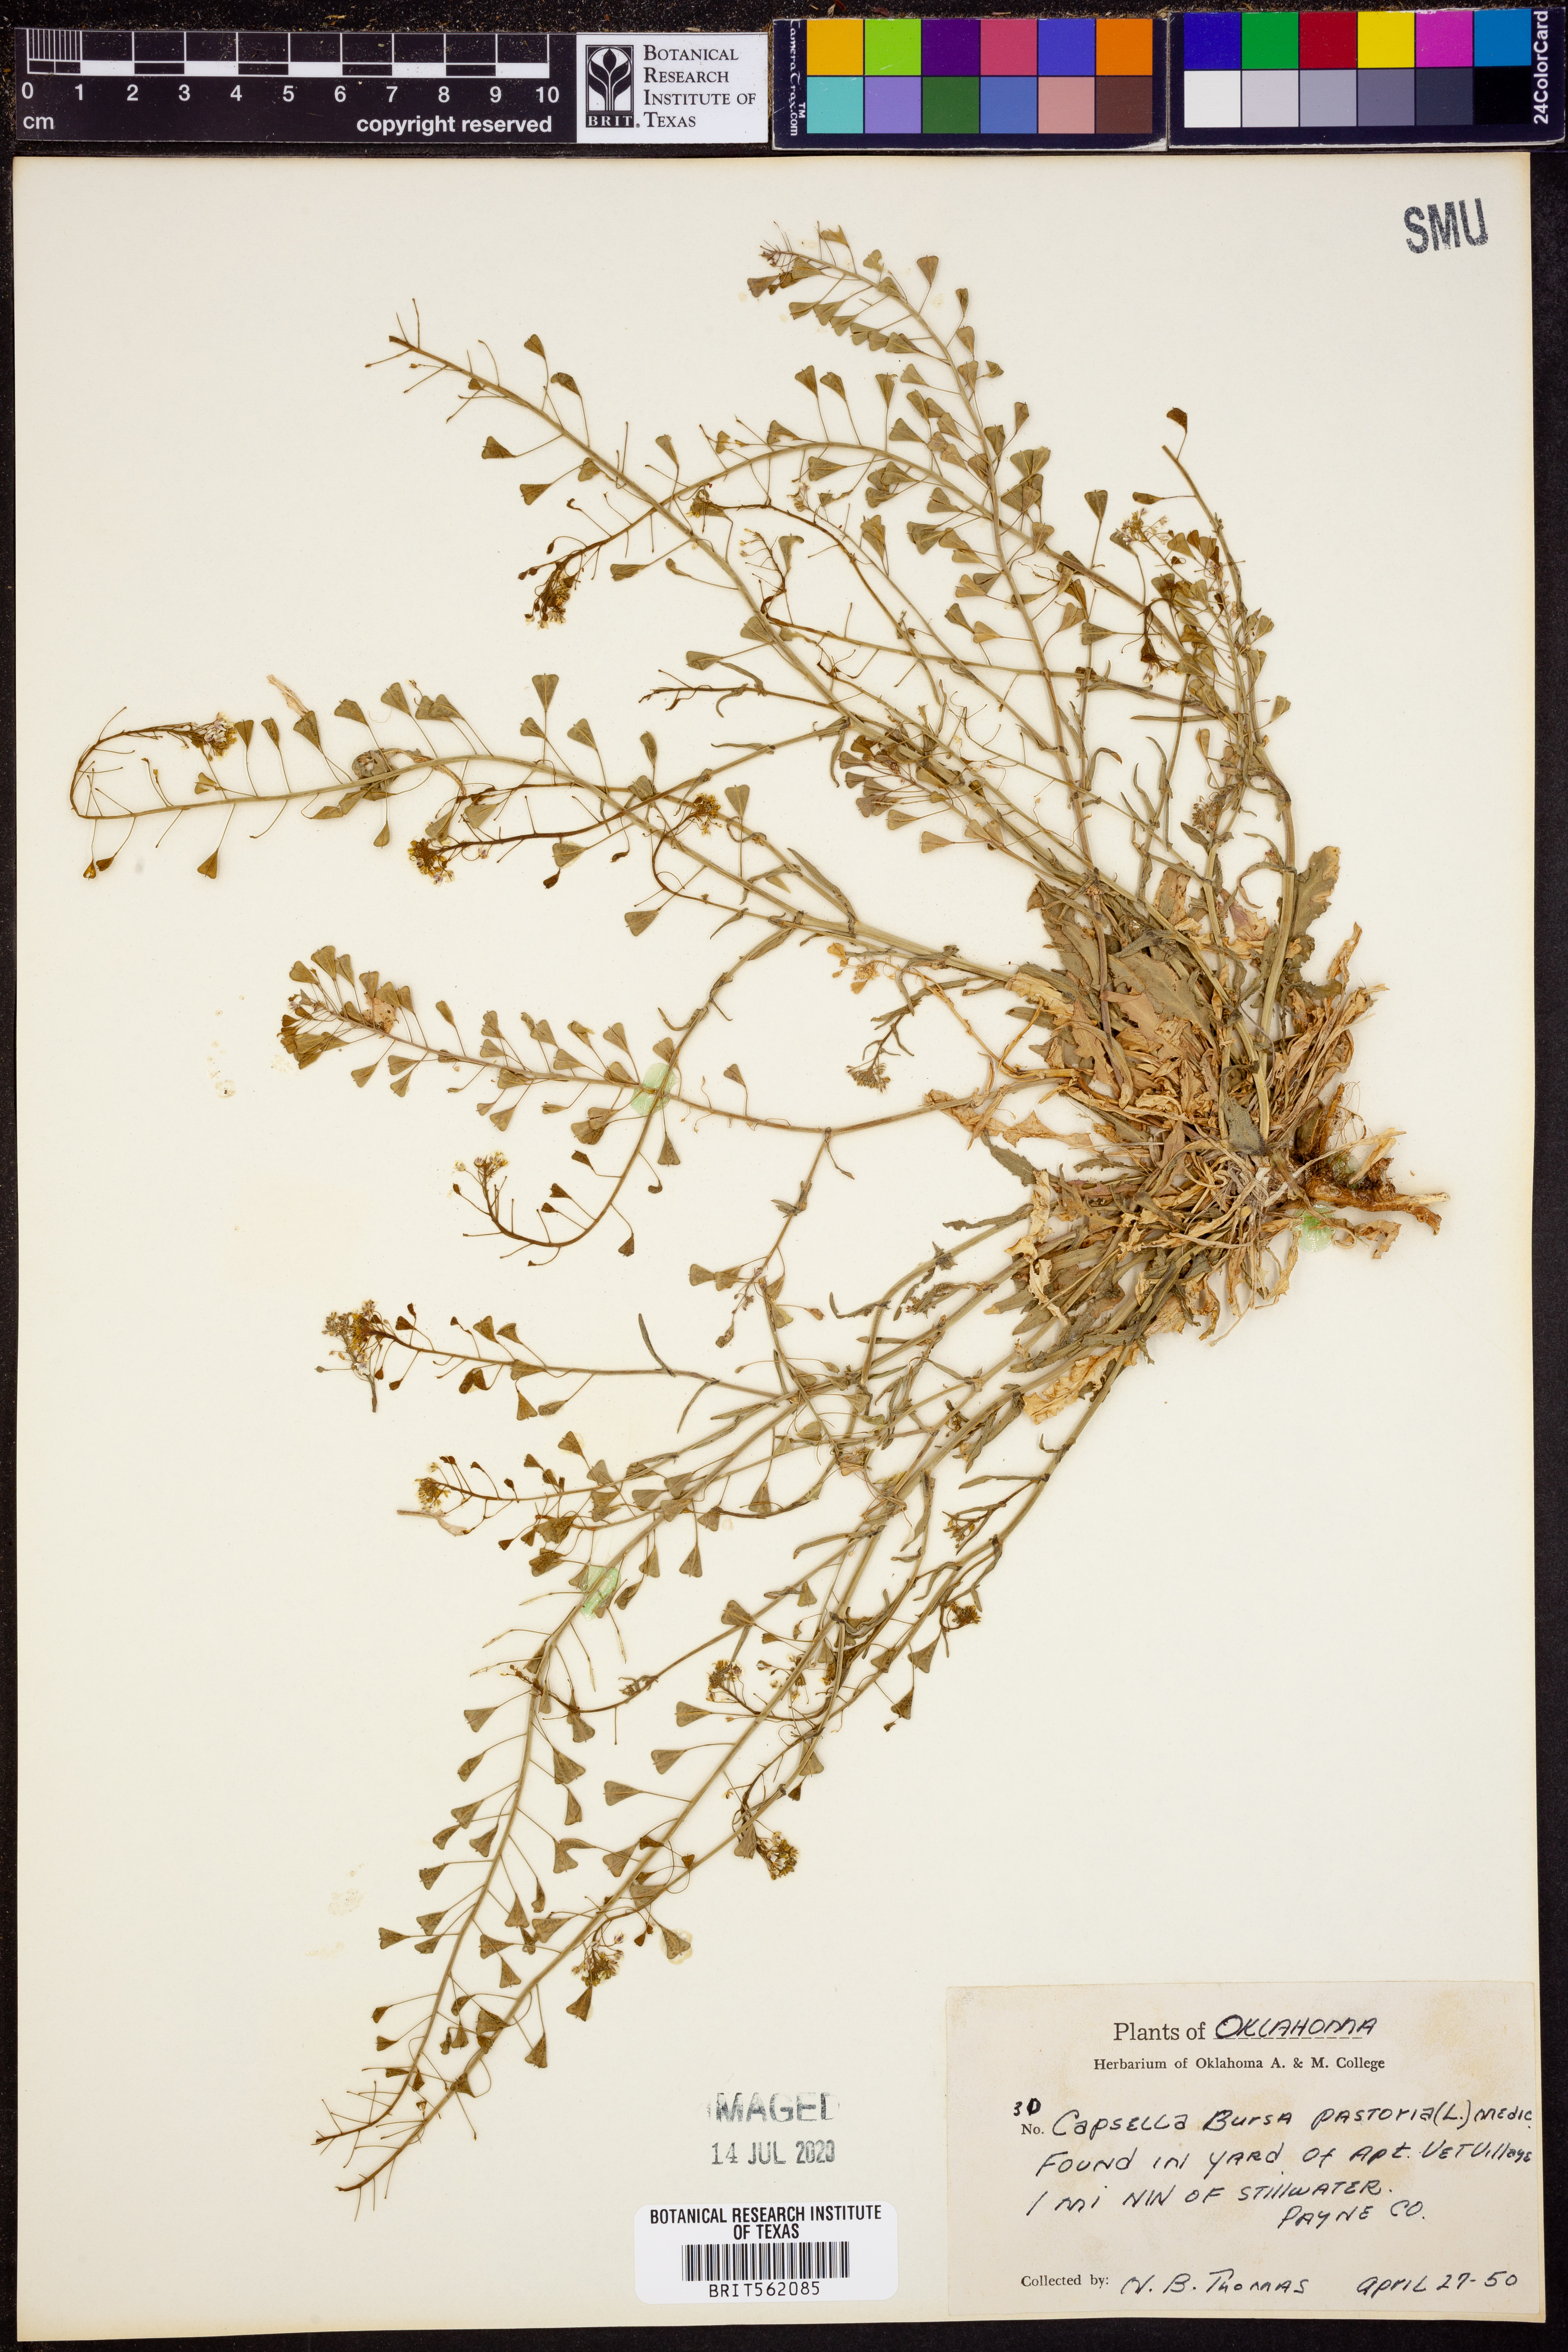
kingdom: Plantae
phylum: Tracheophyta
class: Magnoliopsida
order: Brassicales
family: Brassicaceae
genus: Capsella
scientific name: Capsella bursa-pastoris
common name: Shepherd's purse
